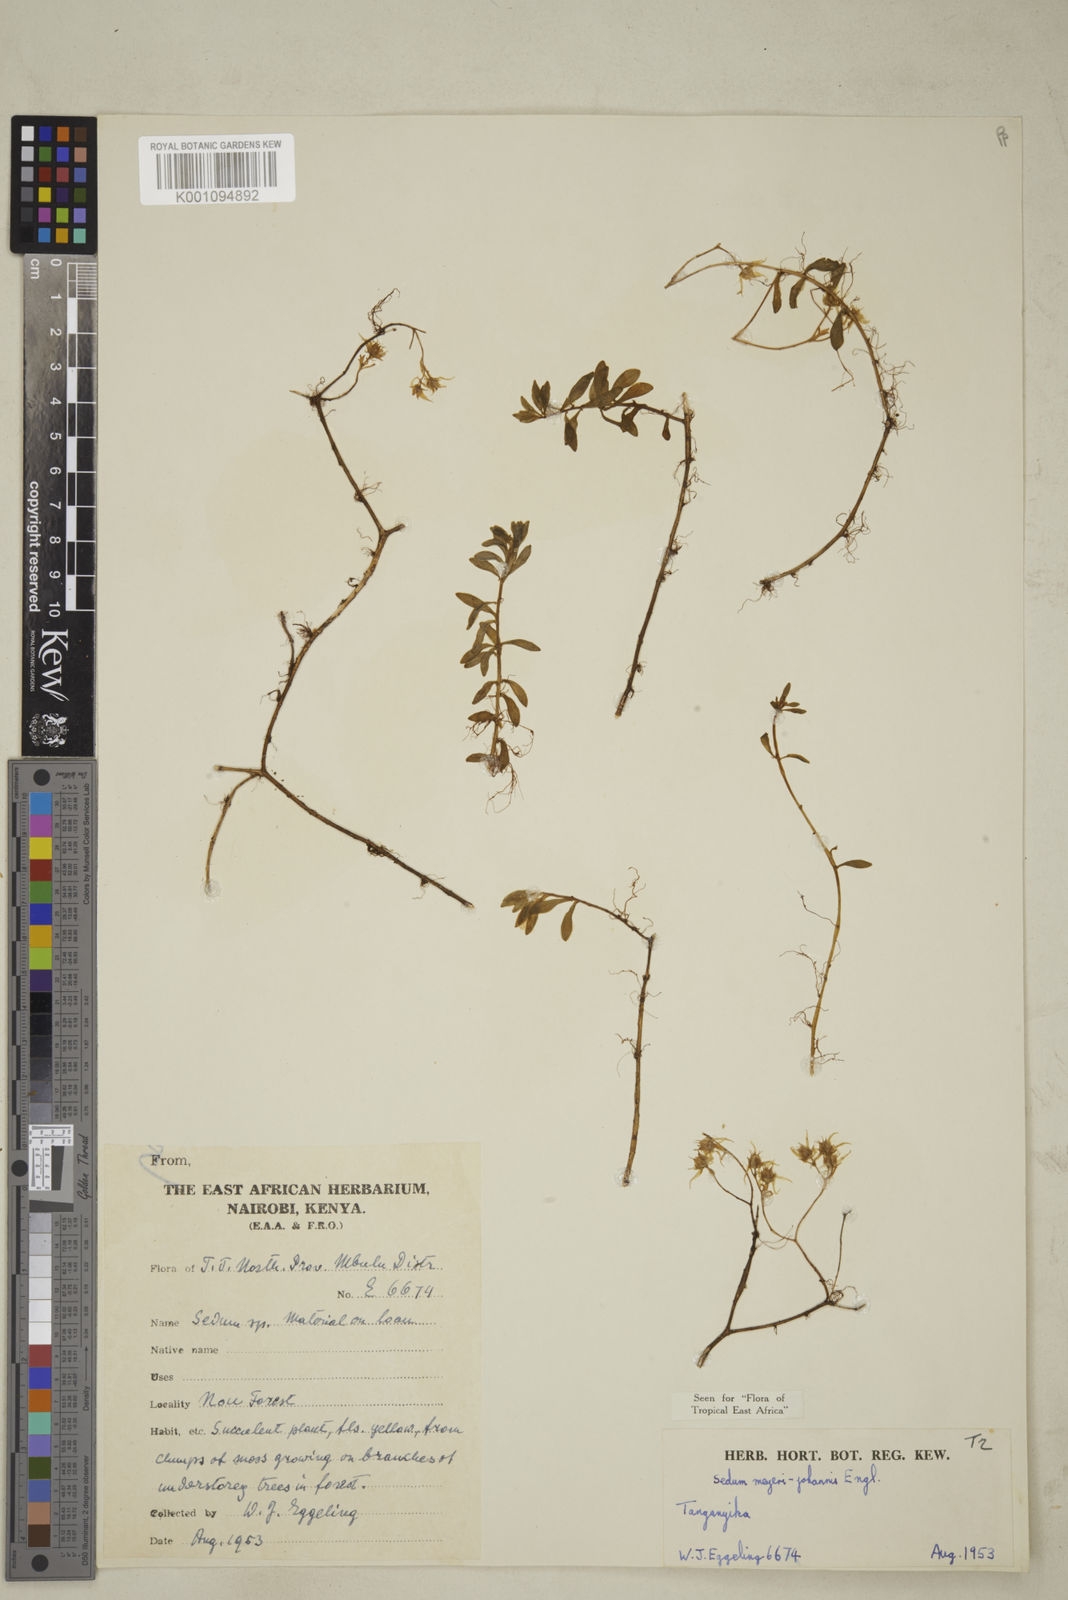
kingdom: Plantae
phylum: Tracheophyta
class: Magnoliopsida
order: Saxifragales
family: Crassulaceae
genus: Sedum
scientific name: Sedum meyeri-johannis
